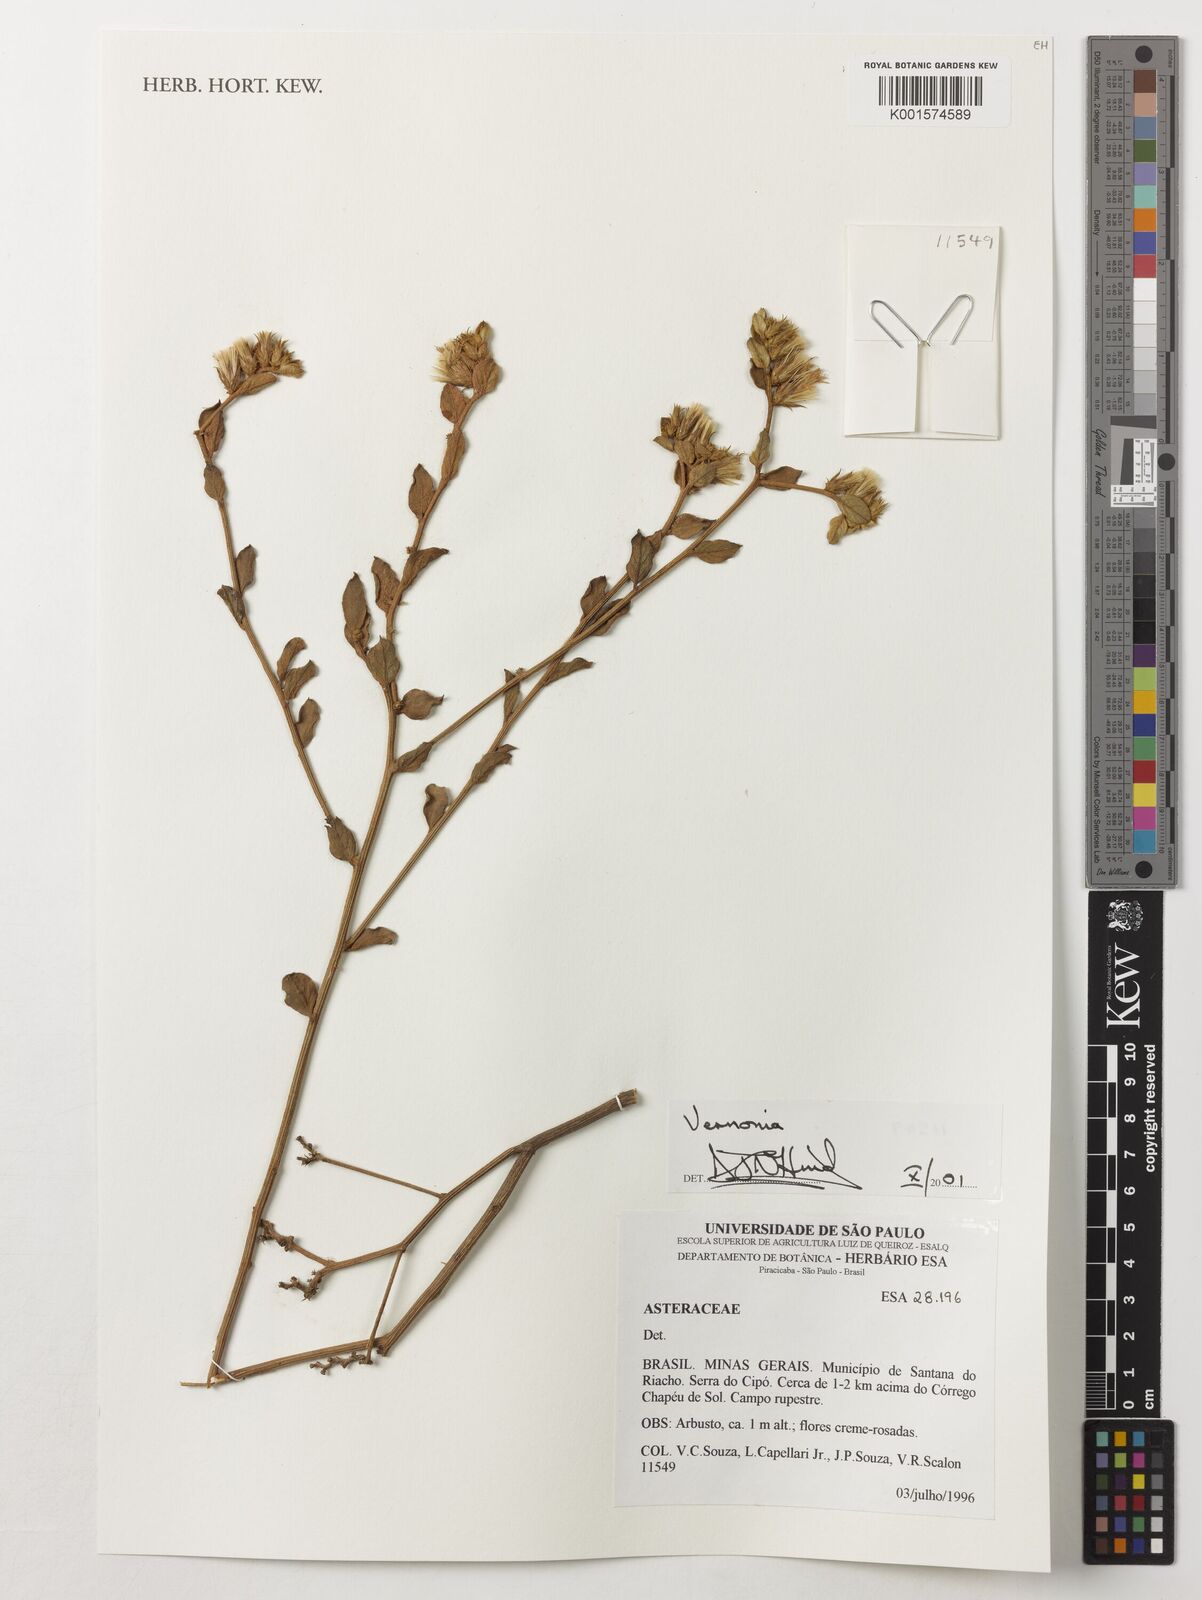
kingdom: Plantae
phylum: Tracheophyta
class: Magnoliopsida
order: Asterales
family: Asteraceae
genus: Vernonia
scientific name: Vernonia
